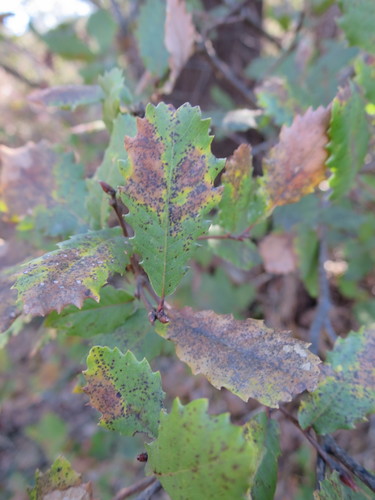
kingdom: Plantae
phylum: Tracheophyta
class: Magnoliopsida
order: Fagales
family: Fagaceae
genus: Quercus
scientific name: Quercus lusitanica
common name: Scrub gall oak
